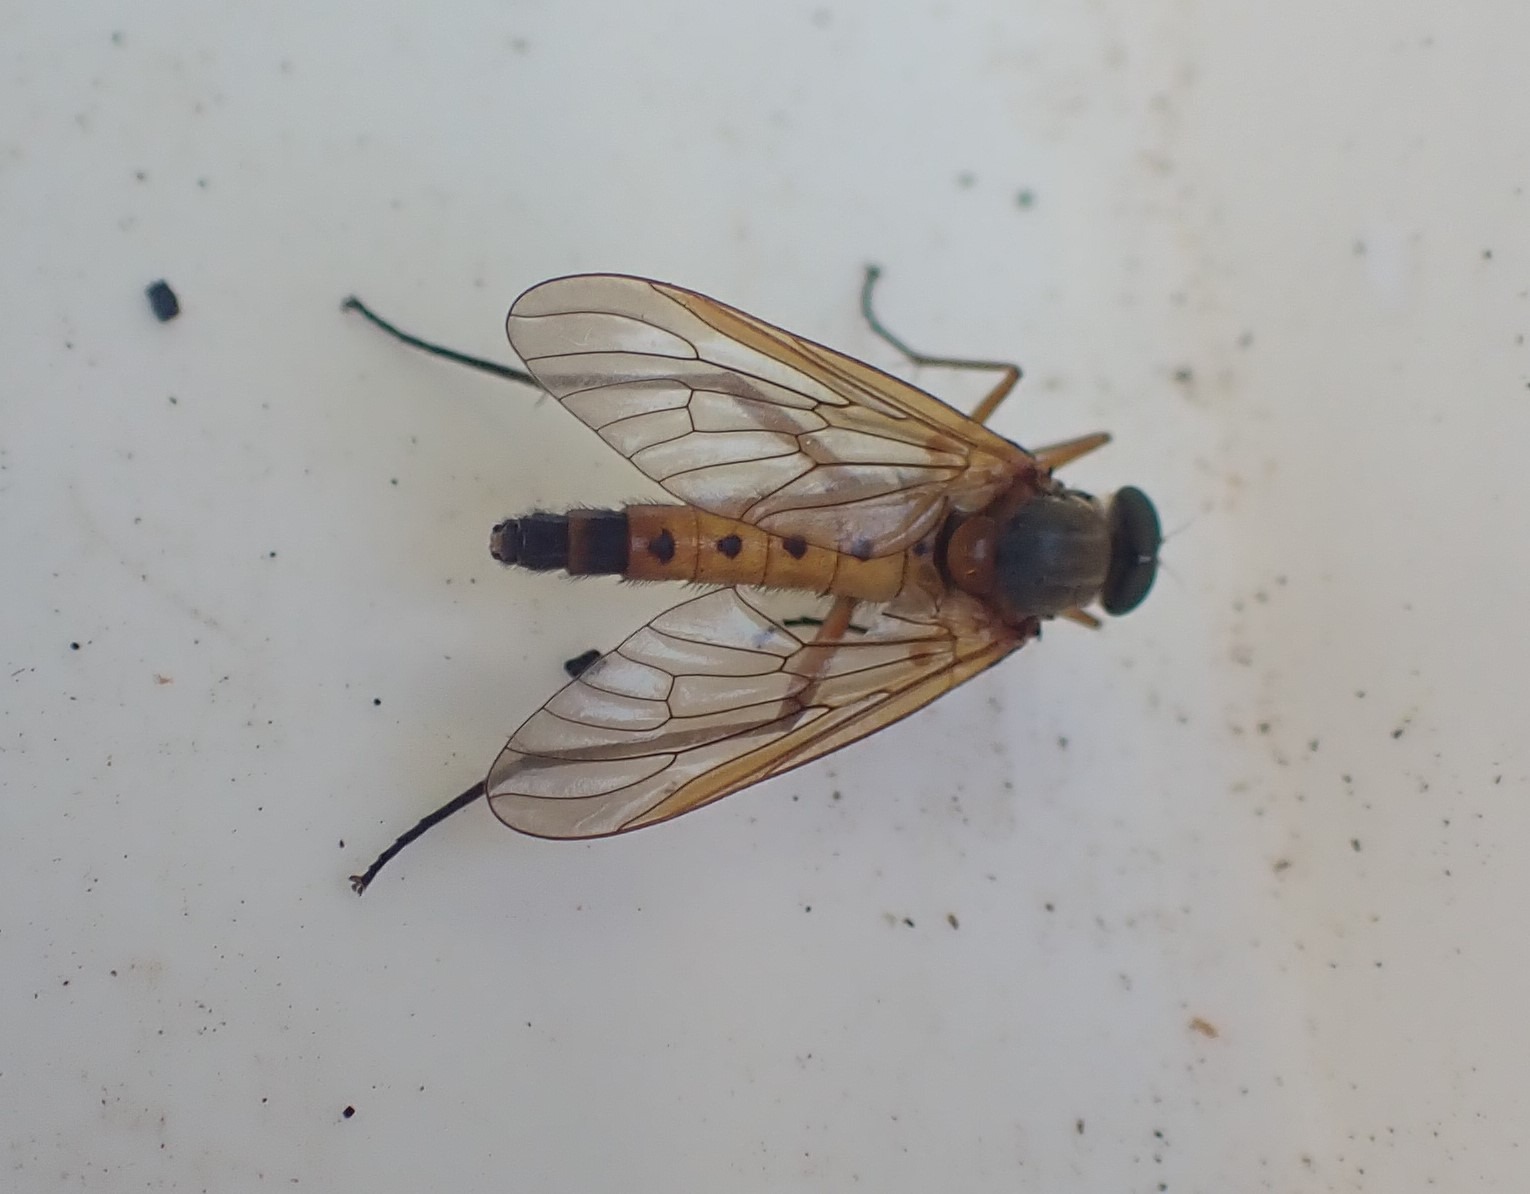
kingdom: Animalia
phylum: Arthropoda
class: Insecta
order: Diptera
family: Rhagionidae
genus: Rhagio
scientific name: Rhagio tringaria
